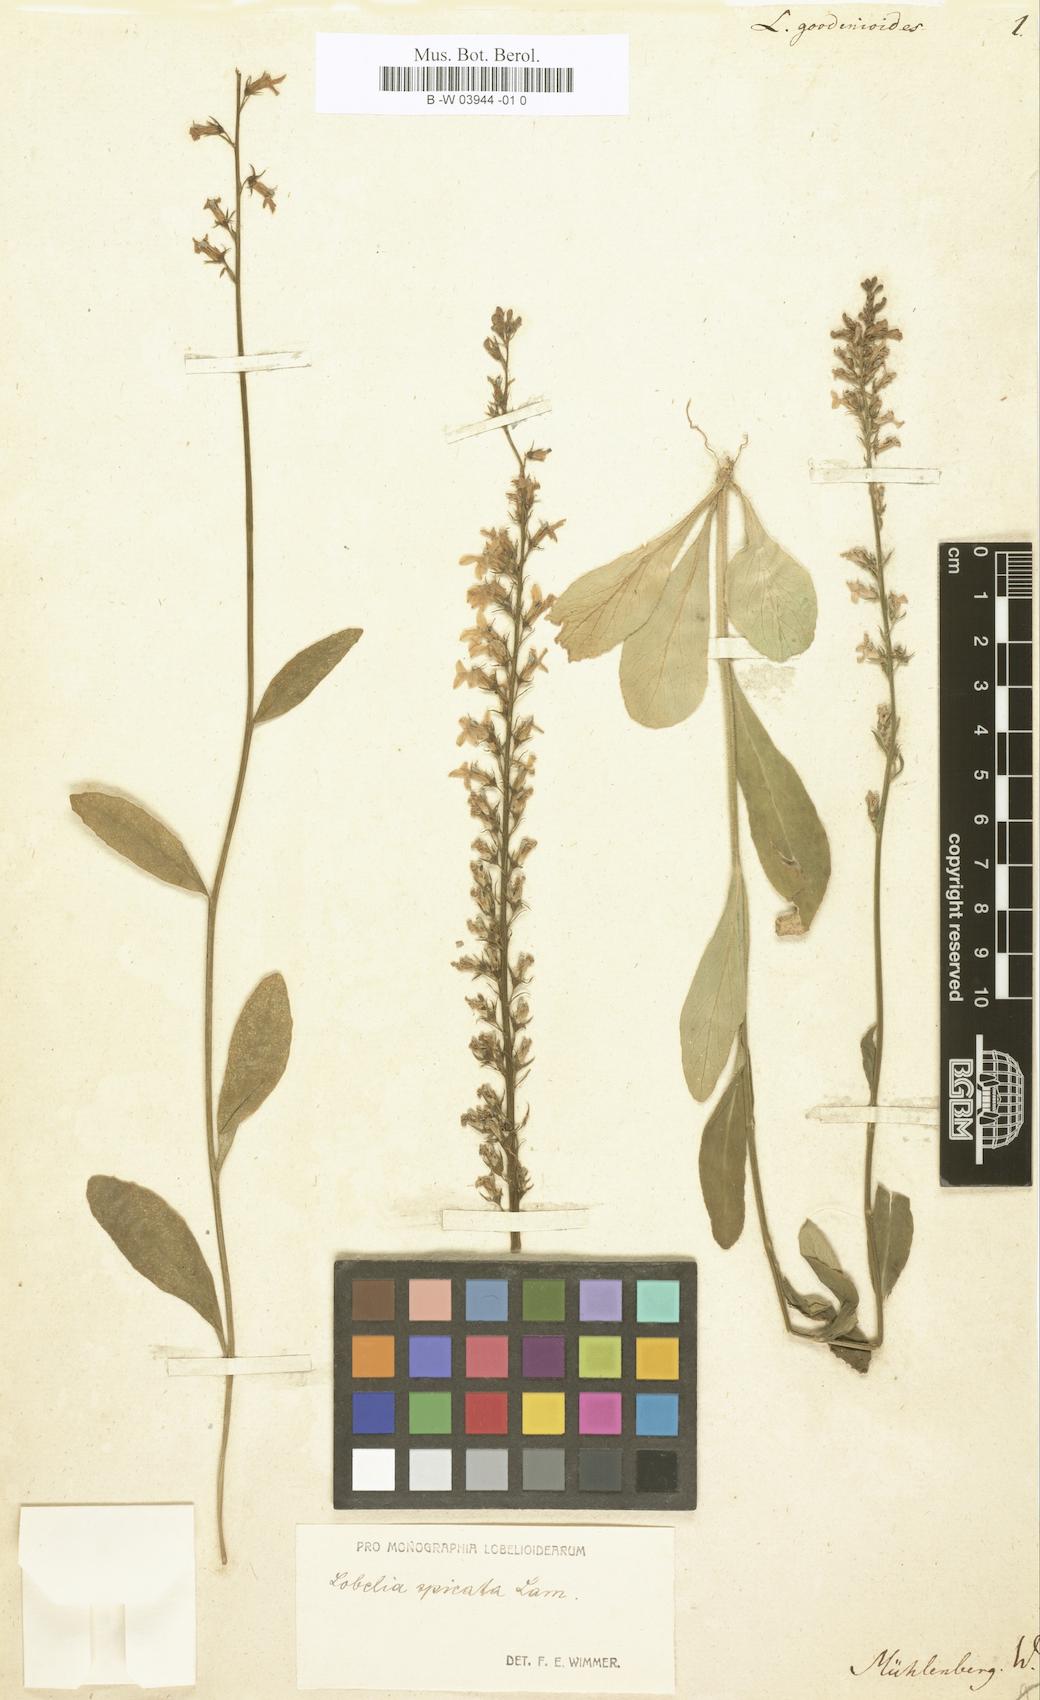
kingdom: Plantae
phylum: Tracheophyta
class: Magnoliopsida
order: Asterales
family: Campanulaceae
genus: Lobelia
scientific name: Lobelia spicata
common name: Pale-spike lobelia
